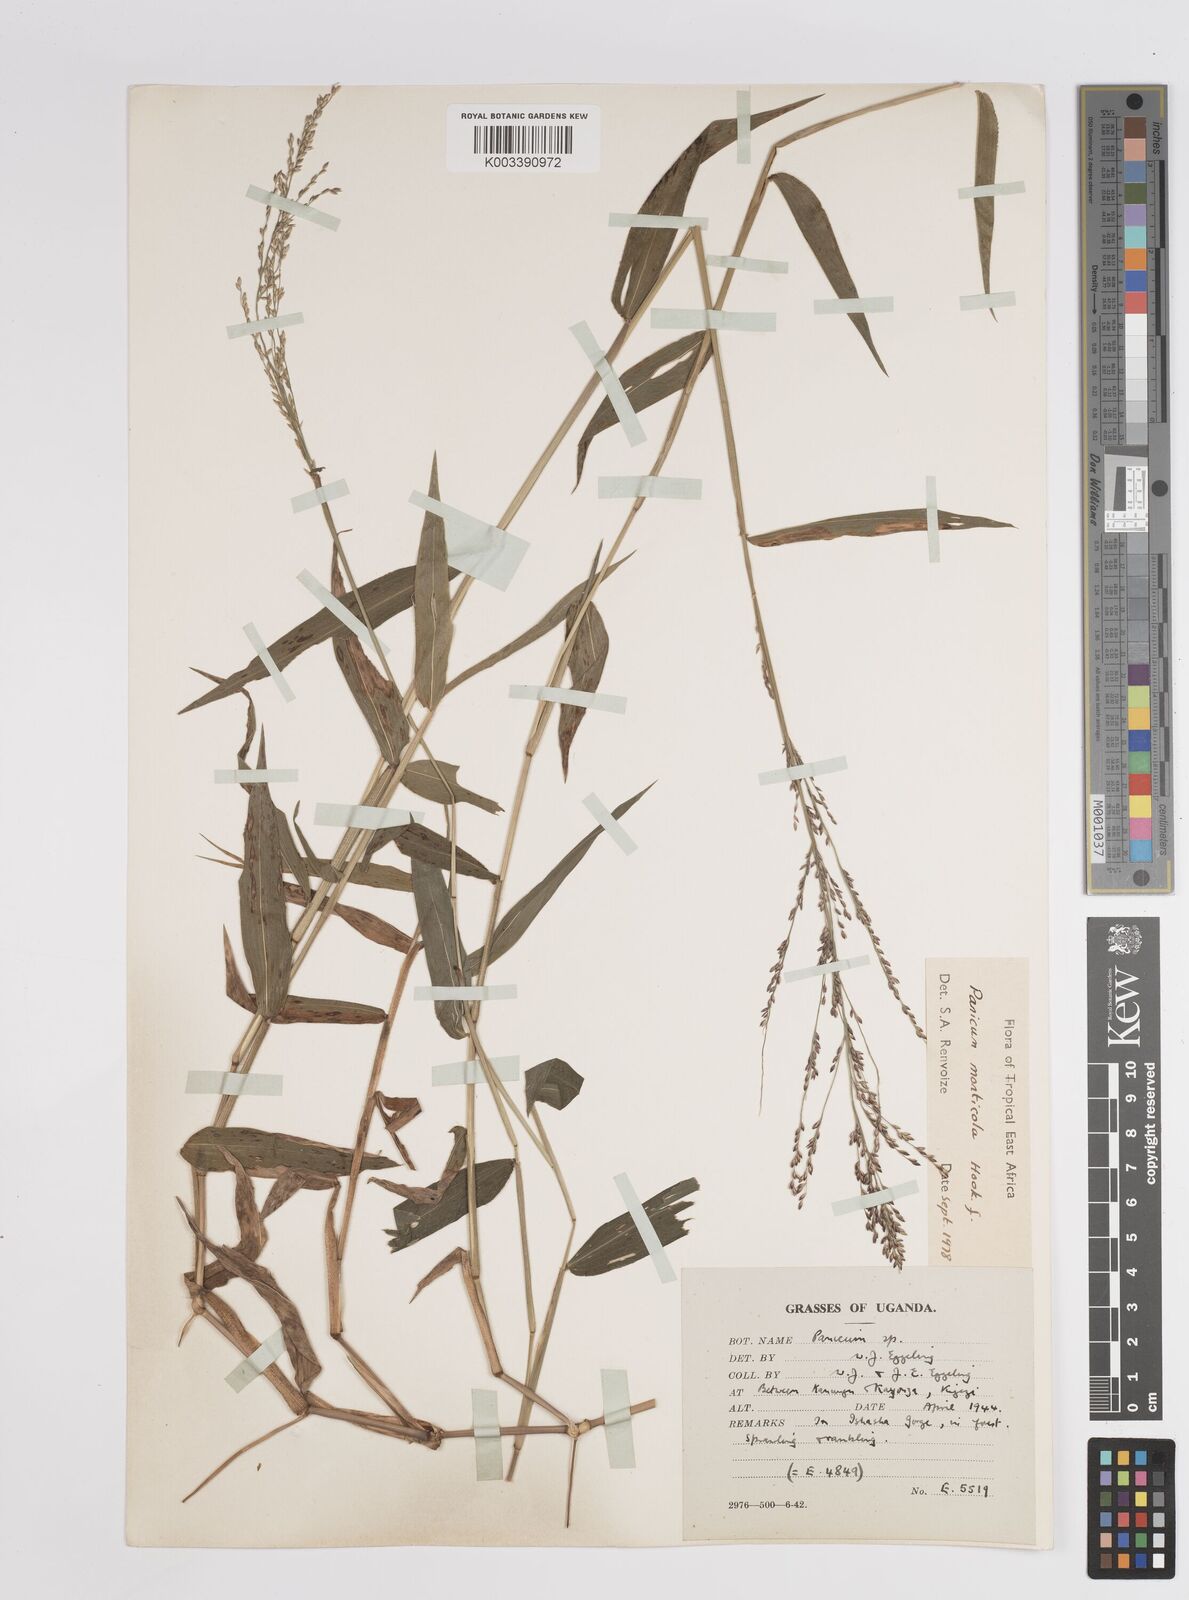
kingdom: Plantae
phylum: Tracheophyta
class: Liliopsida
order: Poales
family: Poaceae
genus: Panicum
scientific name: Panicum
